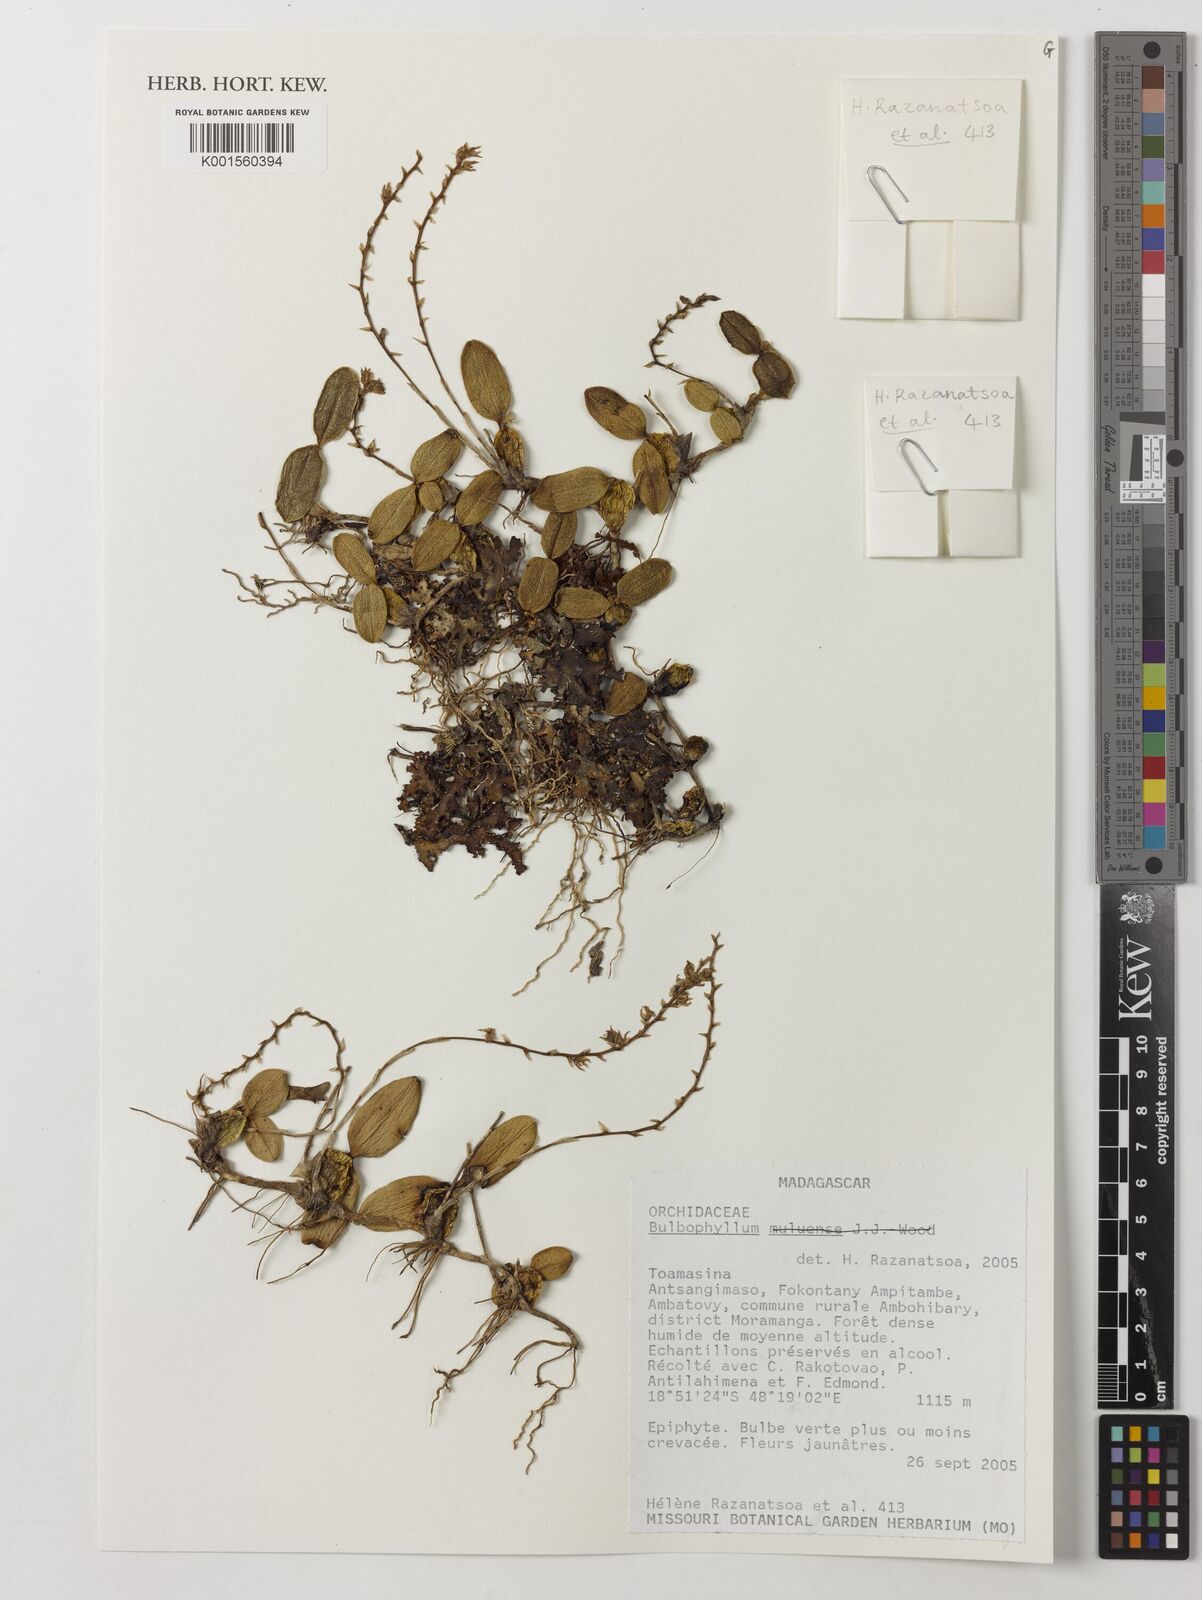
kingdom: Plantae
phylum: Tracheophyta
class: Liliopsida
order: Asparagales
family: Orchidaceae
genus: Bulbophyllum
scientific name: Bulbophyllum
